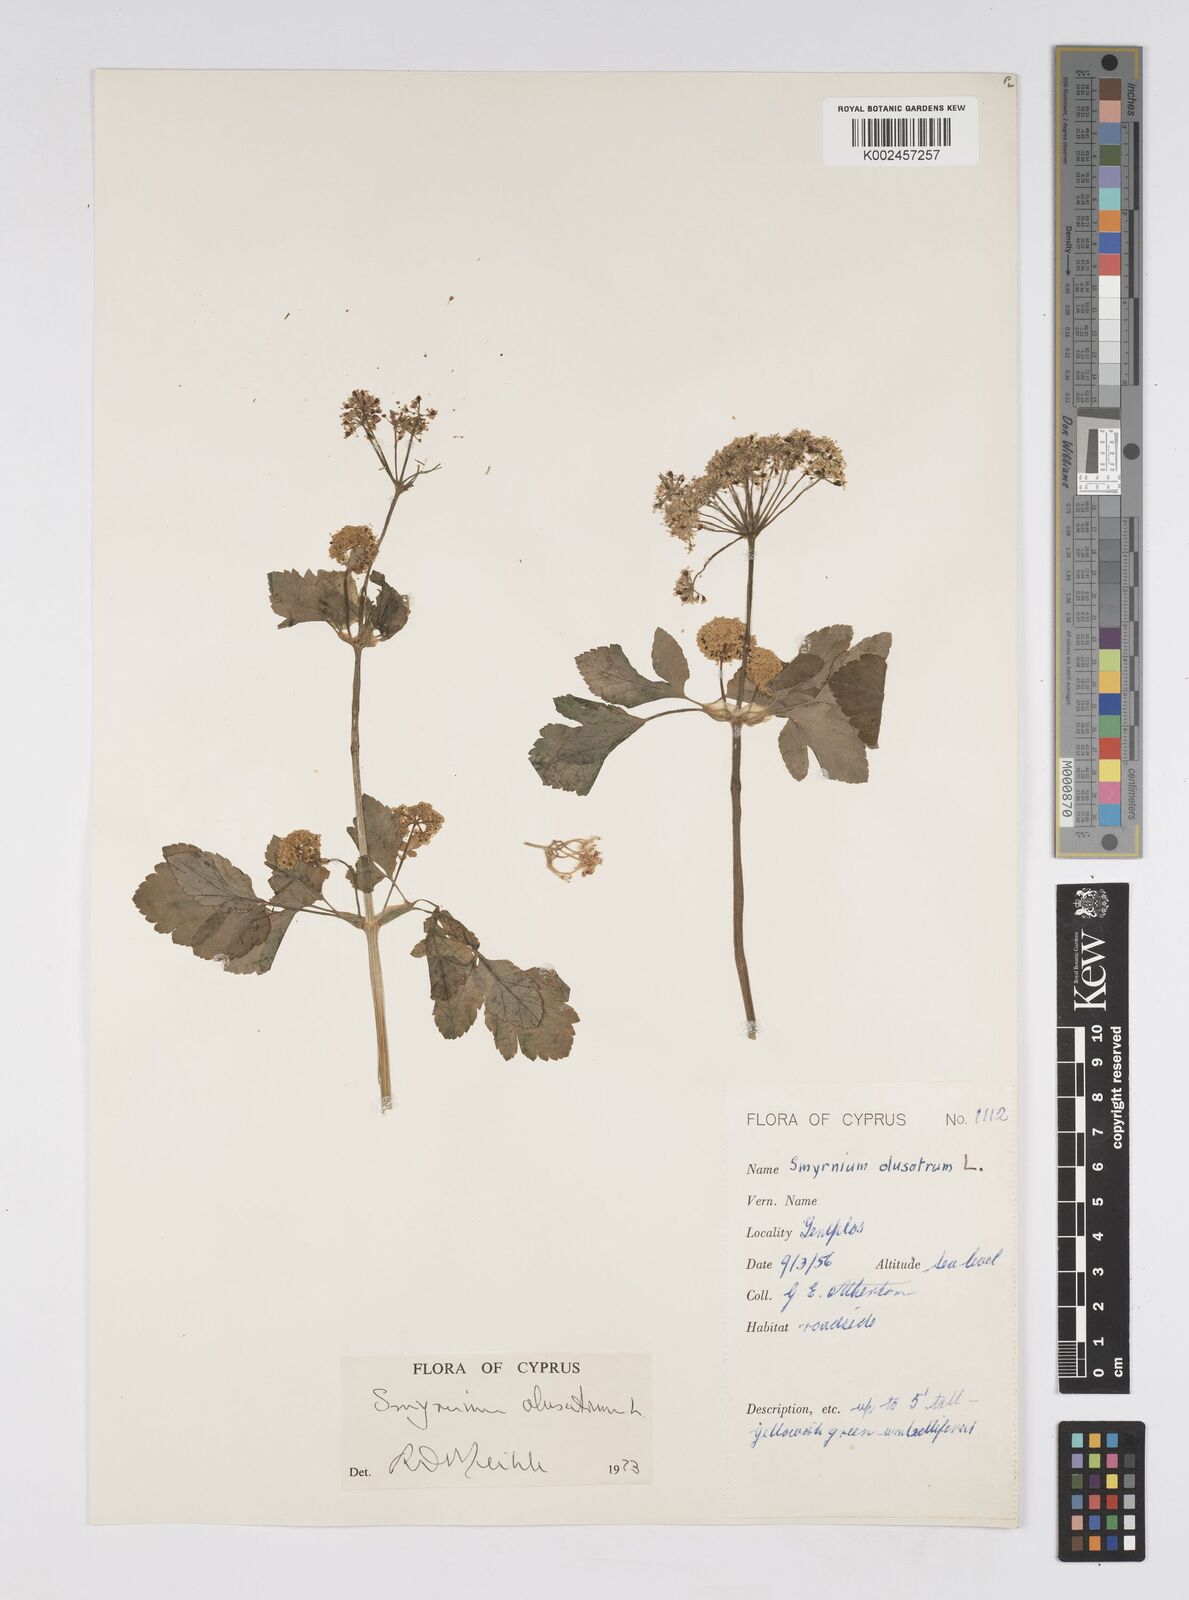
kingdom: Plantae
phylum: Tracheophyta
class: Magnoliopsida
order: Apiales
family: Apiaceae
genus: Smyrnium
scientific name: Smyrnium olusatrum
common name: Alexanders
